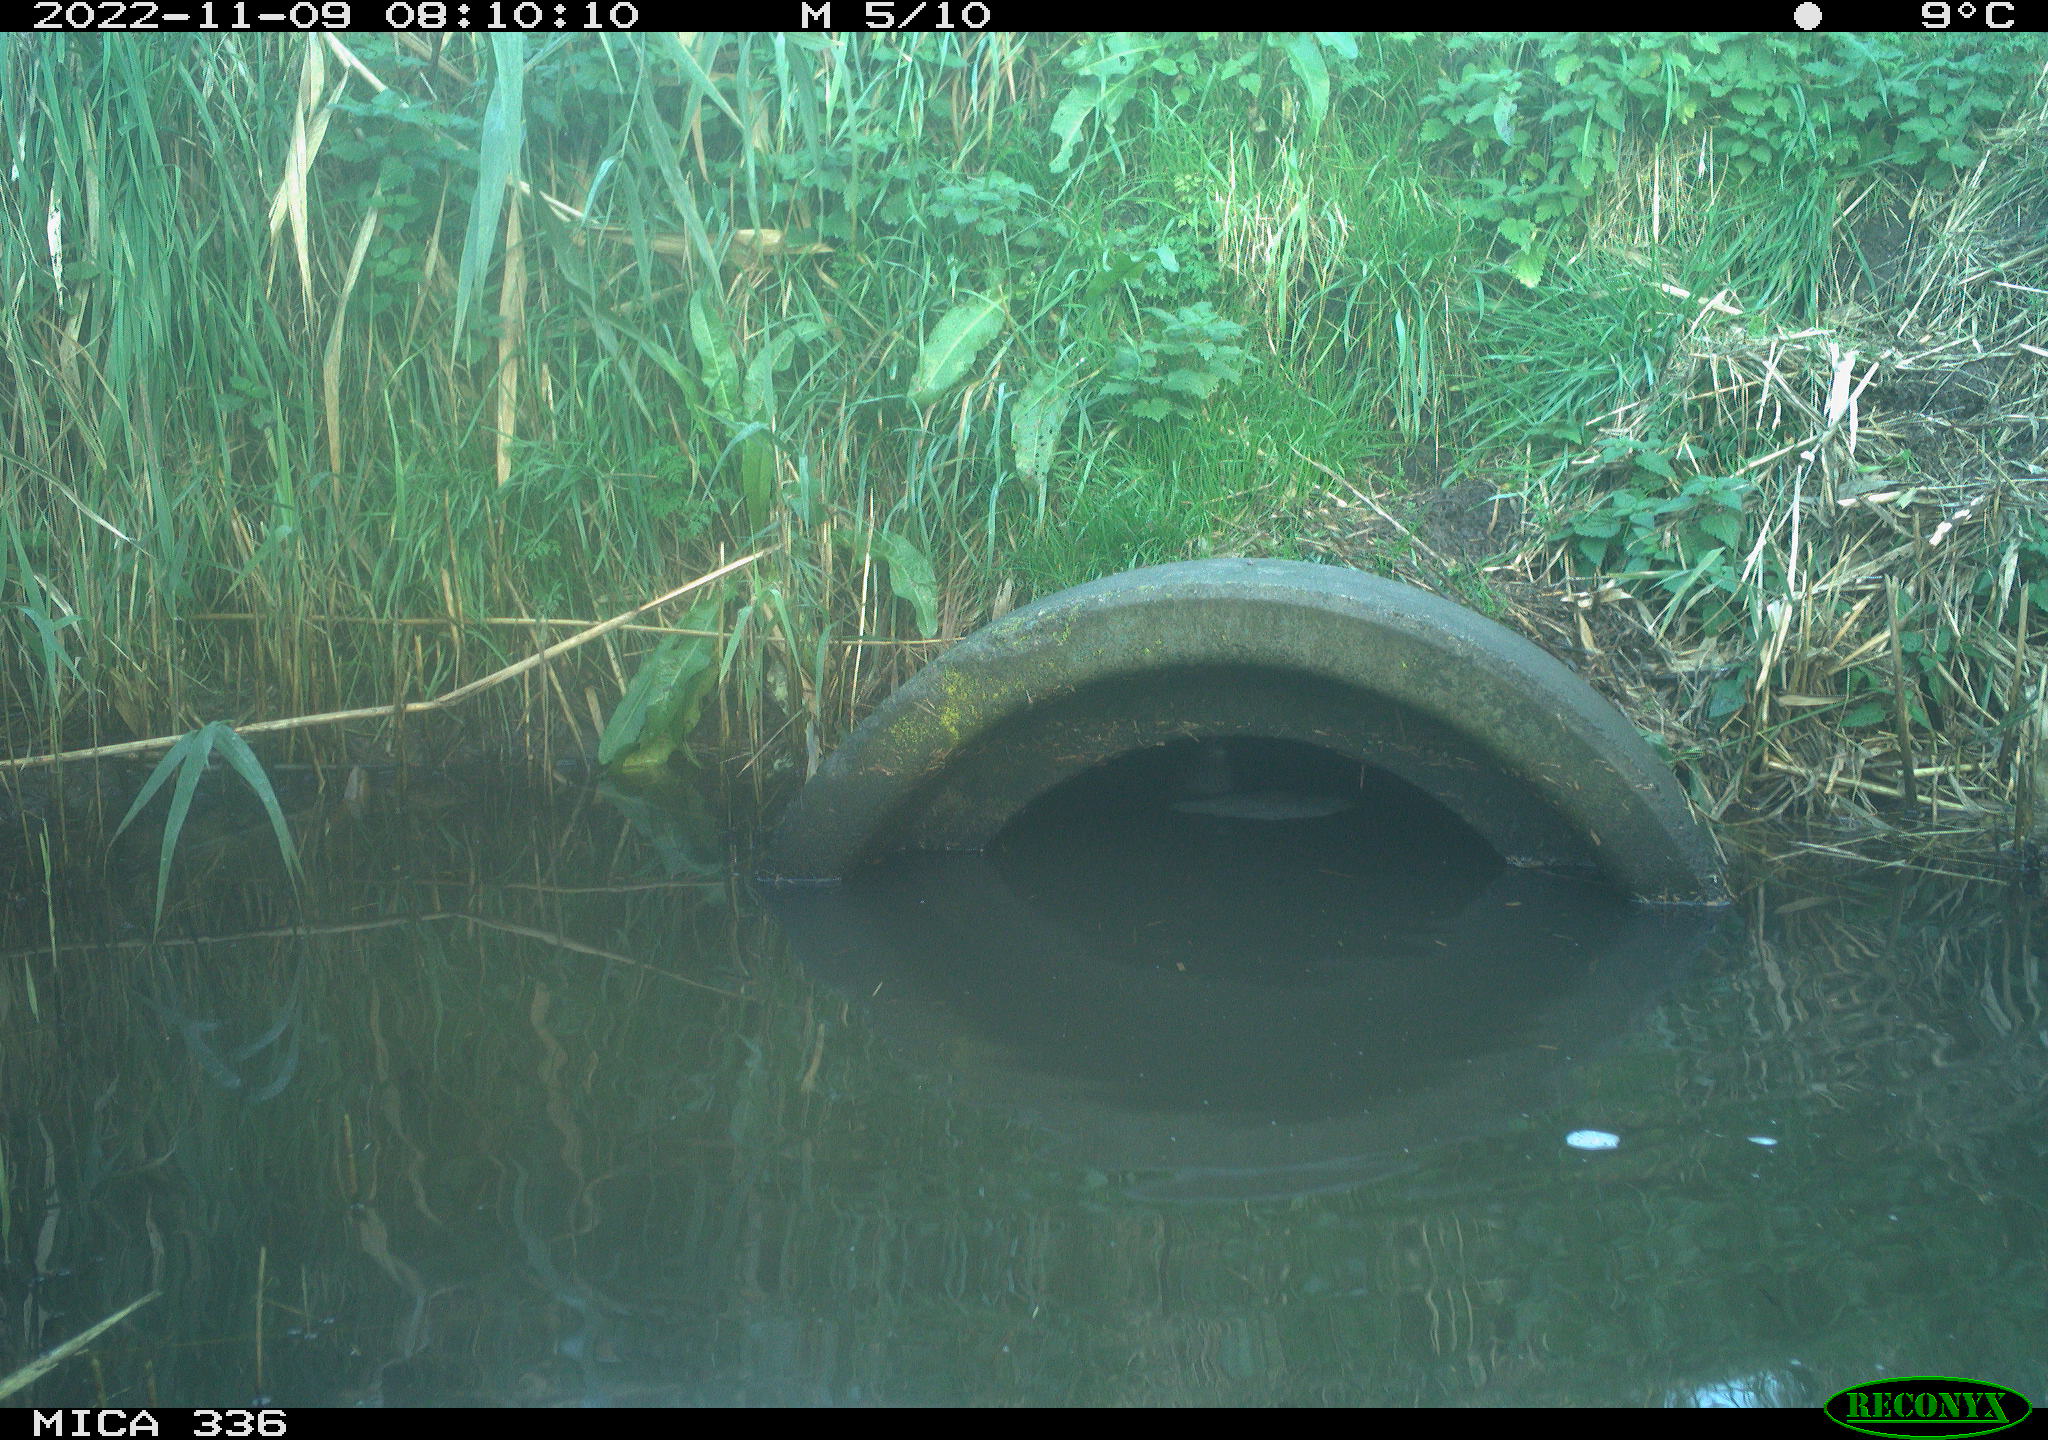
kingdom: Animalia
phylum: Chordata
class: Aves
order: Gruiformes
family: Rallidae
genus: Rallus
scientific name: Rallus aquaticus
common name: Water rail
